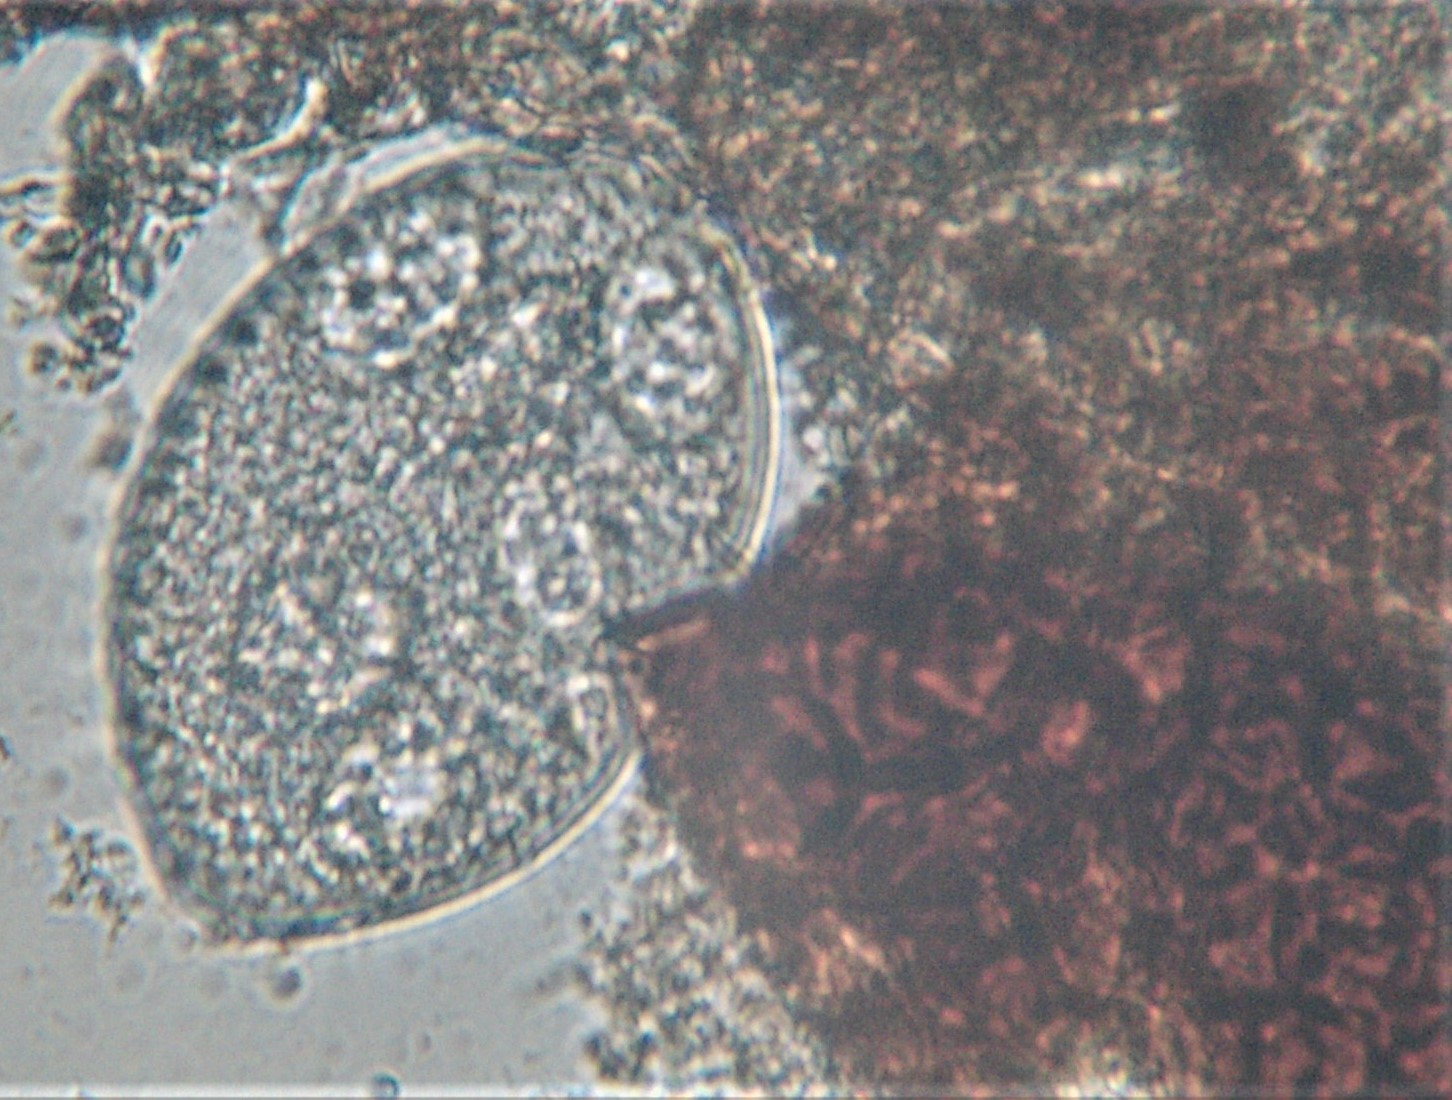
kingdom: Fungi
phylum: Ascomycota
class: Leotiomycetes
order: Helotiales
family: Erysiphaceae
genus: Podosphaera
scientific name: Podosphaera fusca
